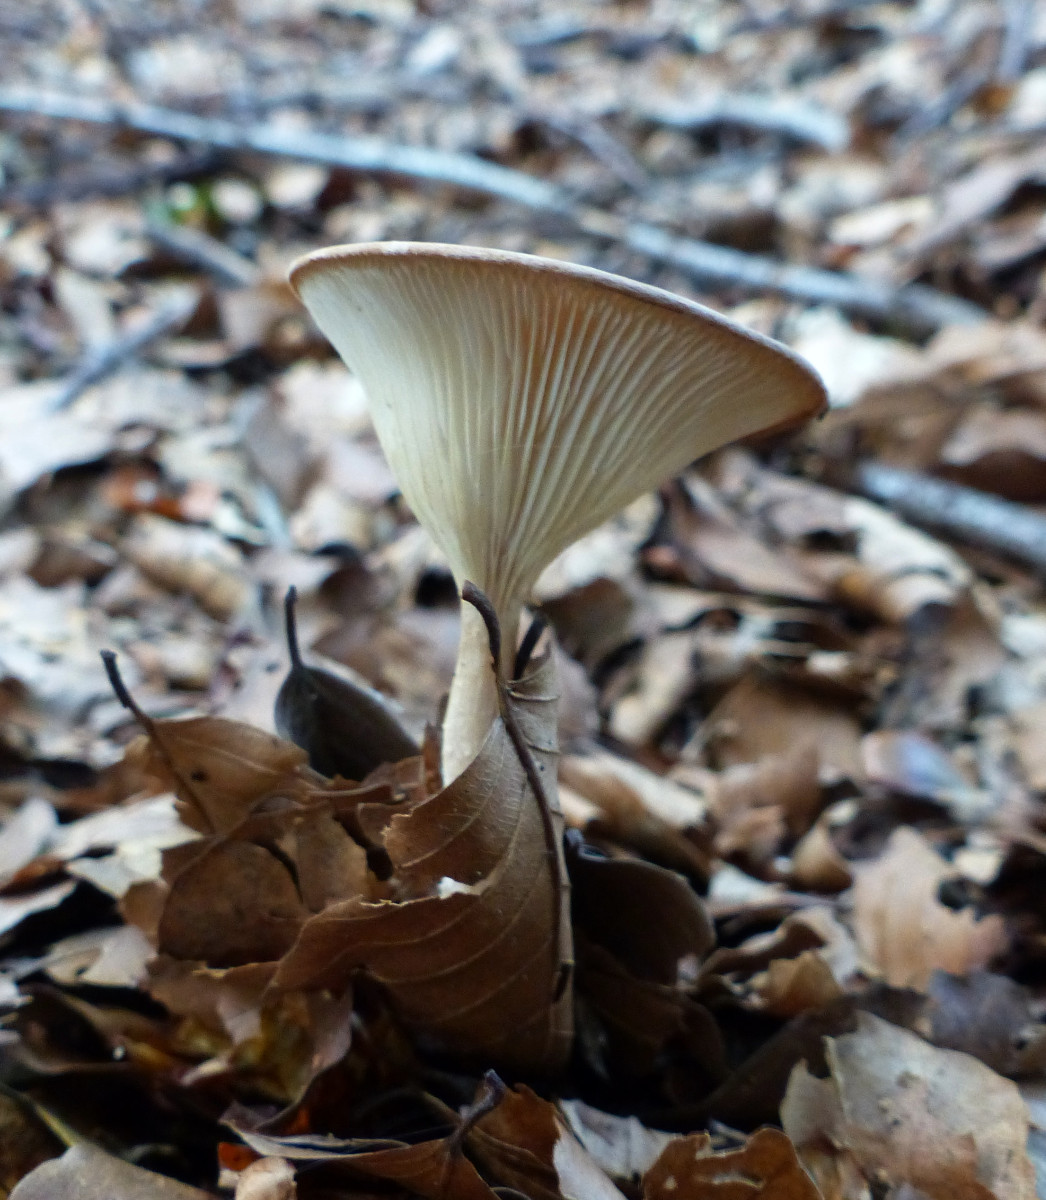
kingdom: Fungi
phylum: Basidiomycota
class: Agaricomycetes
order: Agaricales
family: Tricholomataceae
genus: Infundibulicybe
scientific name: Infundibulicybe gibba
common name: almindelig tragthat
